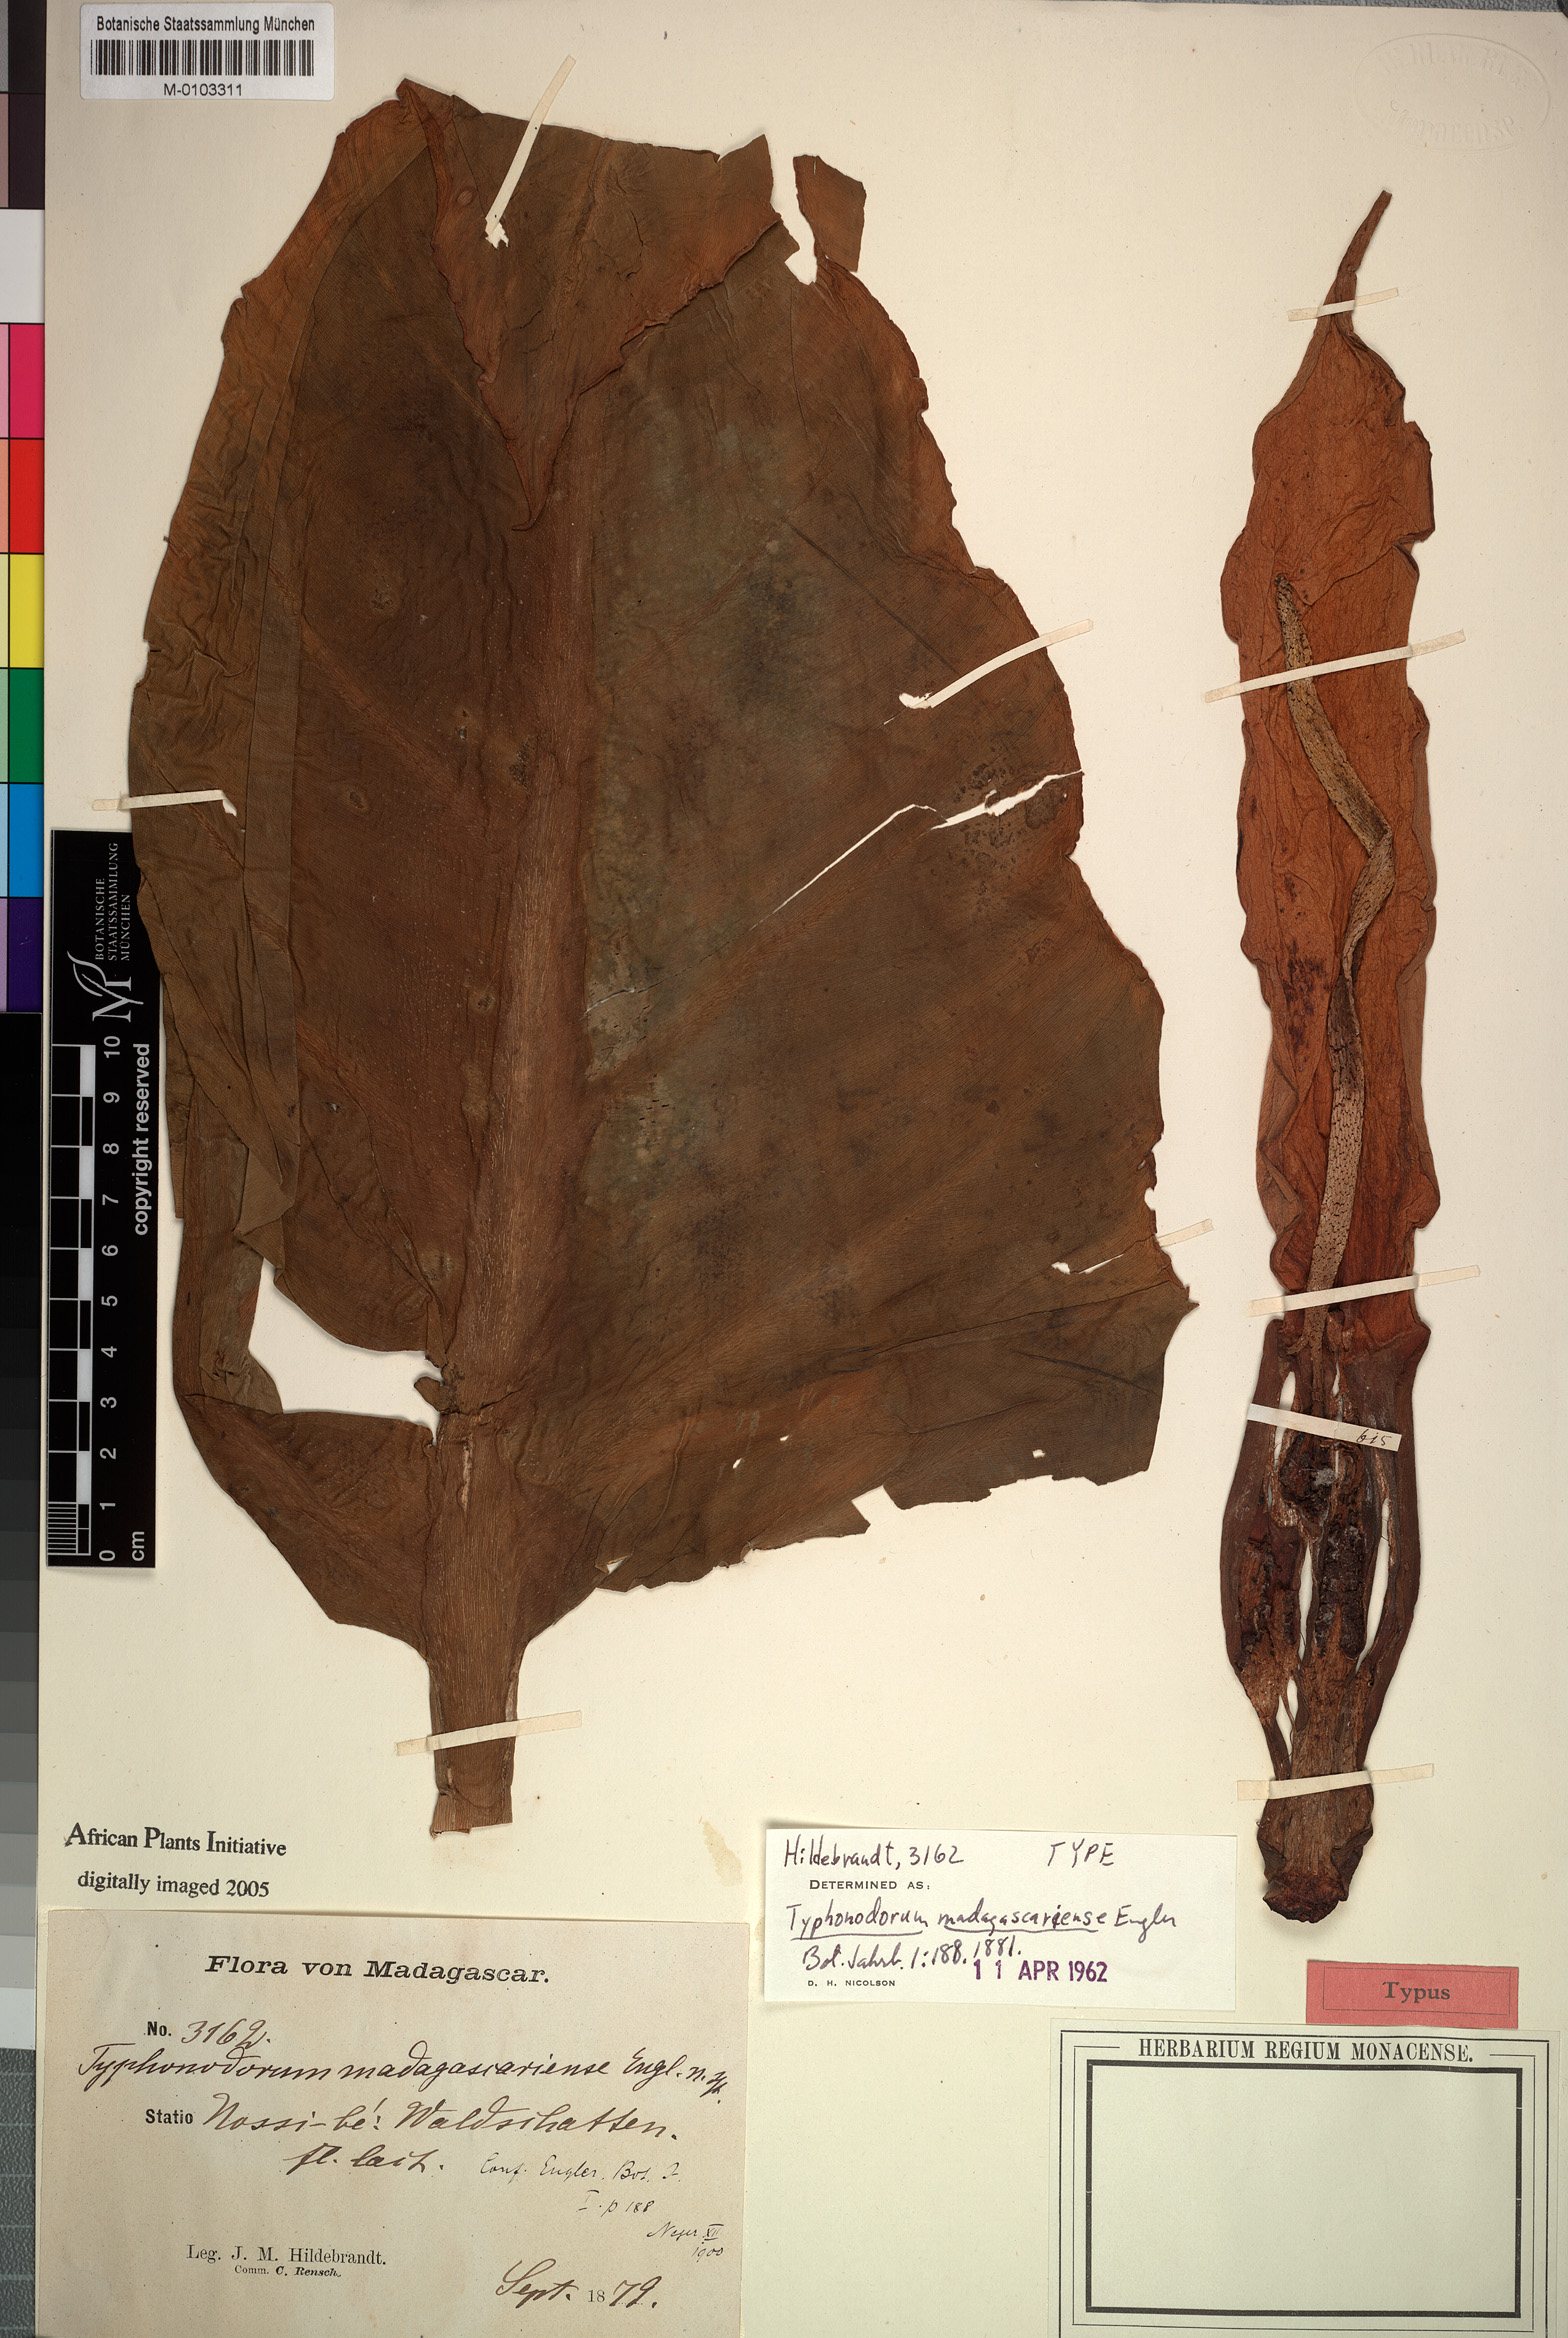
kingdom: Plantae
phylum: Tracheophyta
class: Liliopsida
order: Alismatales
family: Araceae
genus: Typhonodorum
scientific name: Typhonodorum lindleyanum
